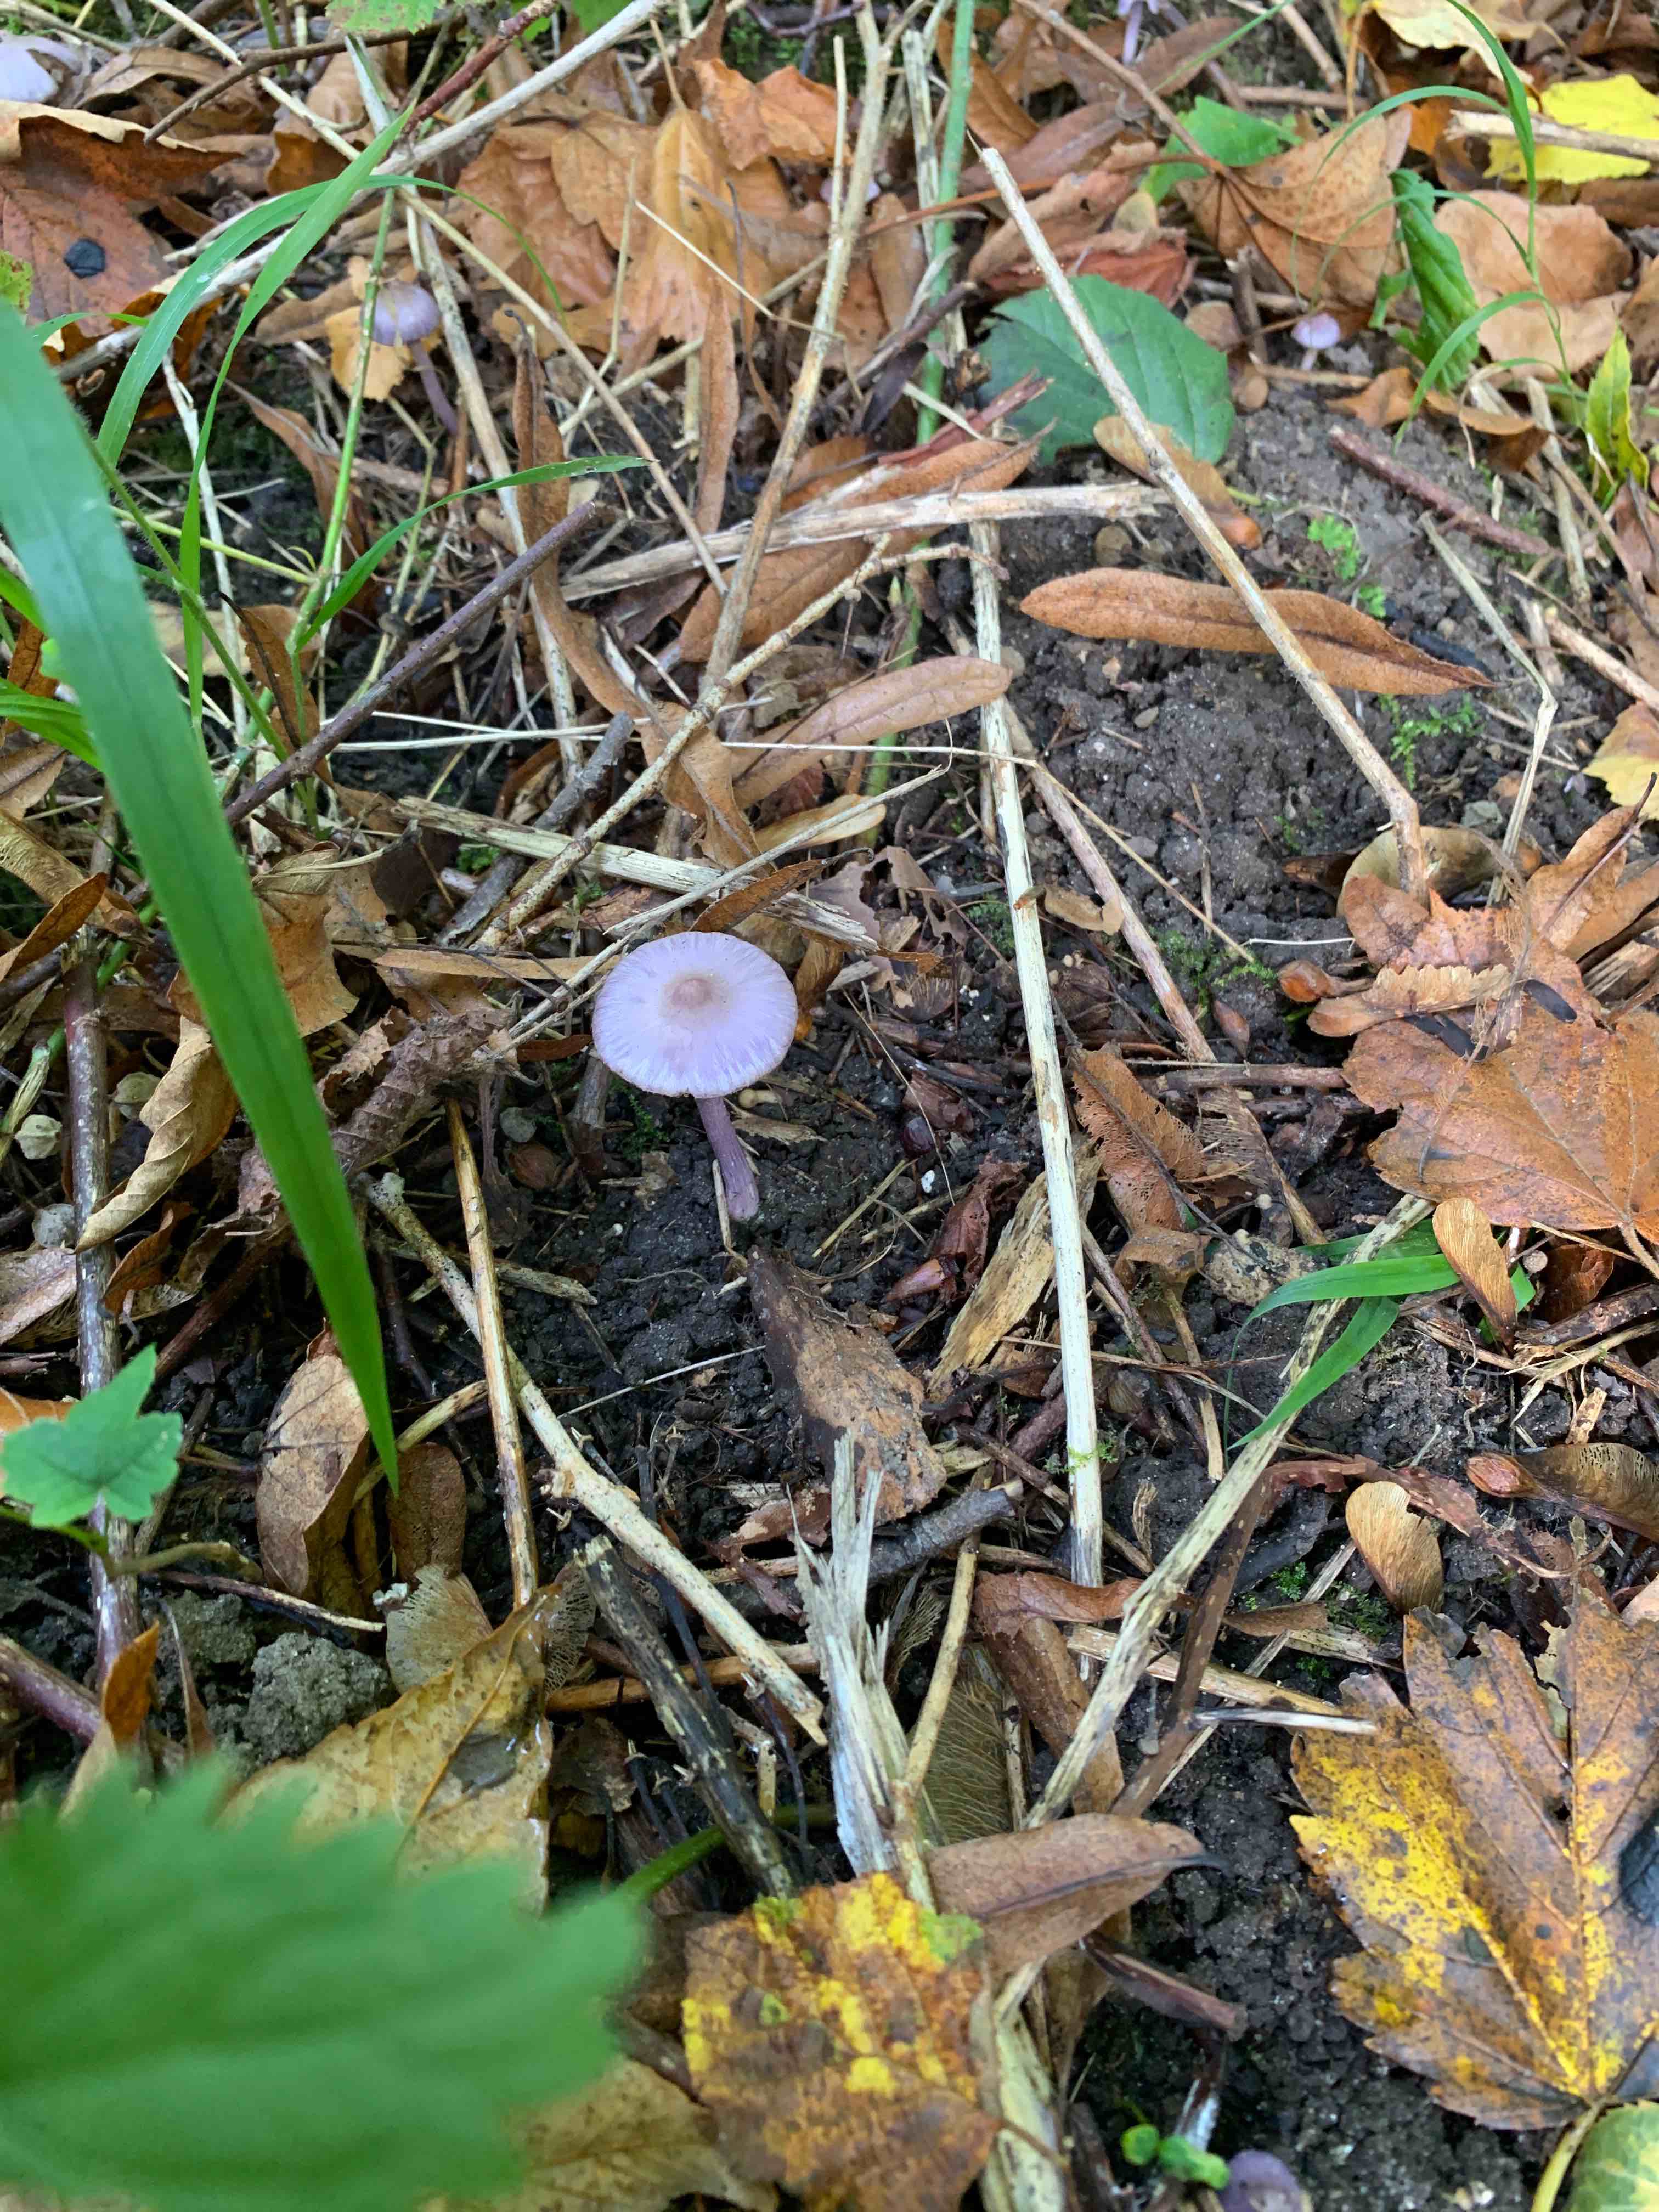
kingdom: Fungi
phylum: Basidiomycota
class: Agaricomycetes
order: Agaricales
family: Inocybaceae
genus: Inocybe
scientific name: Inocybe geophylla
